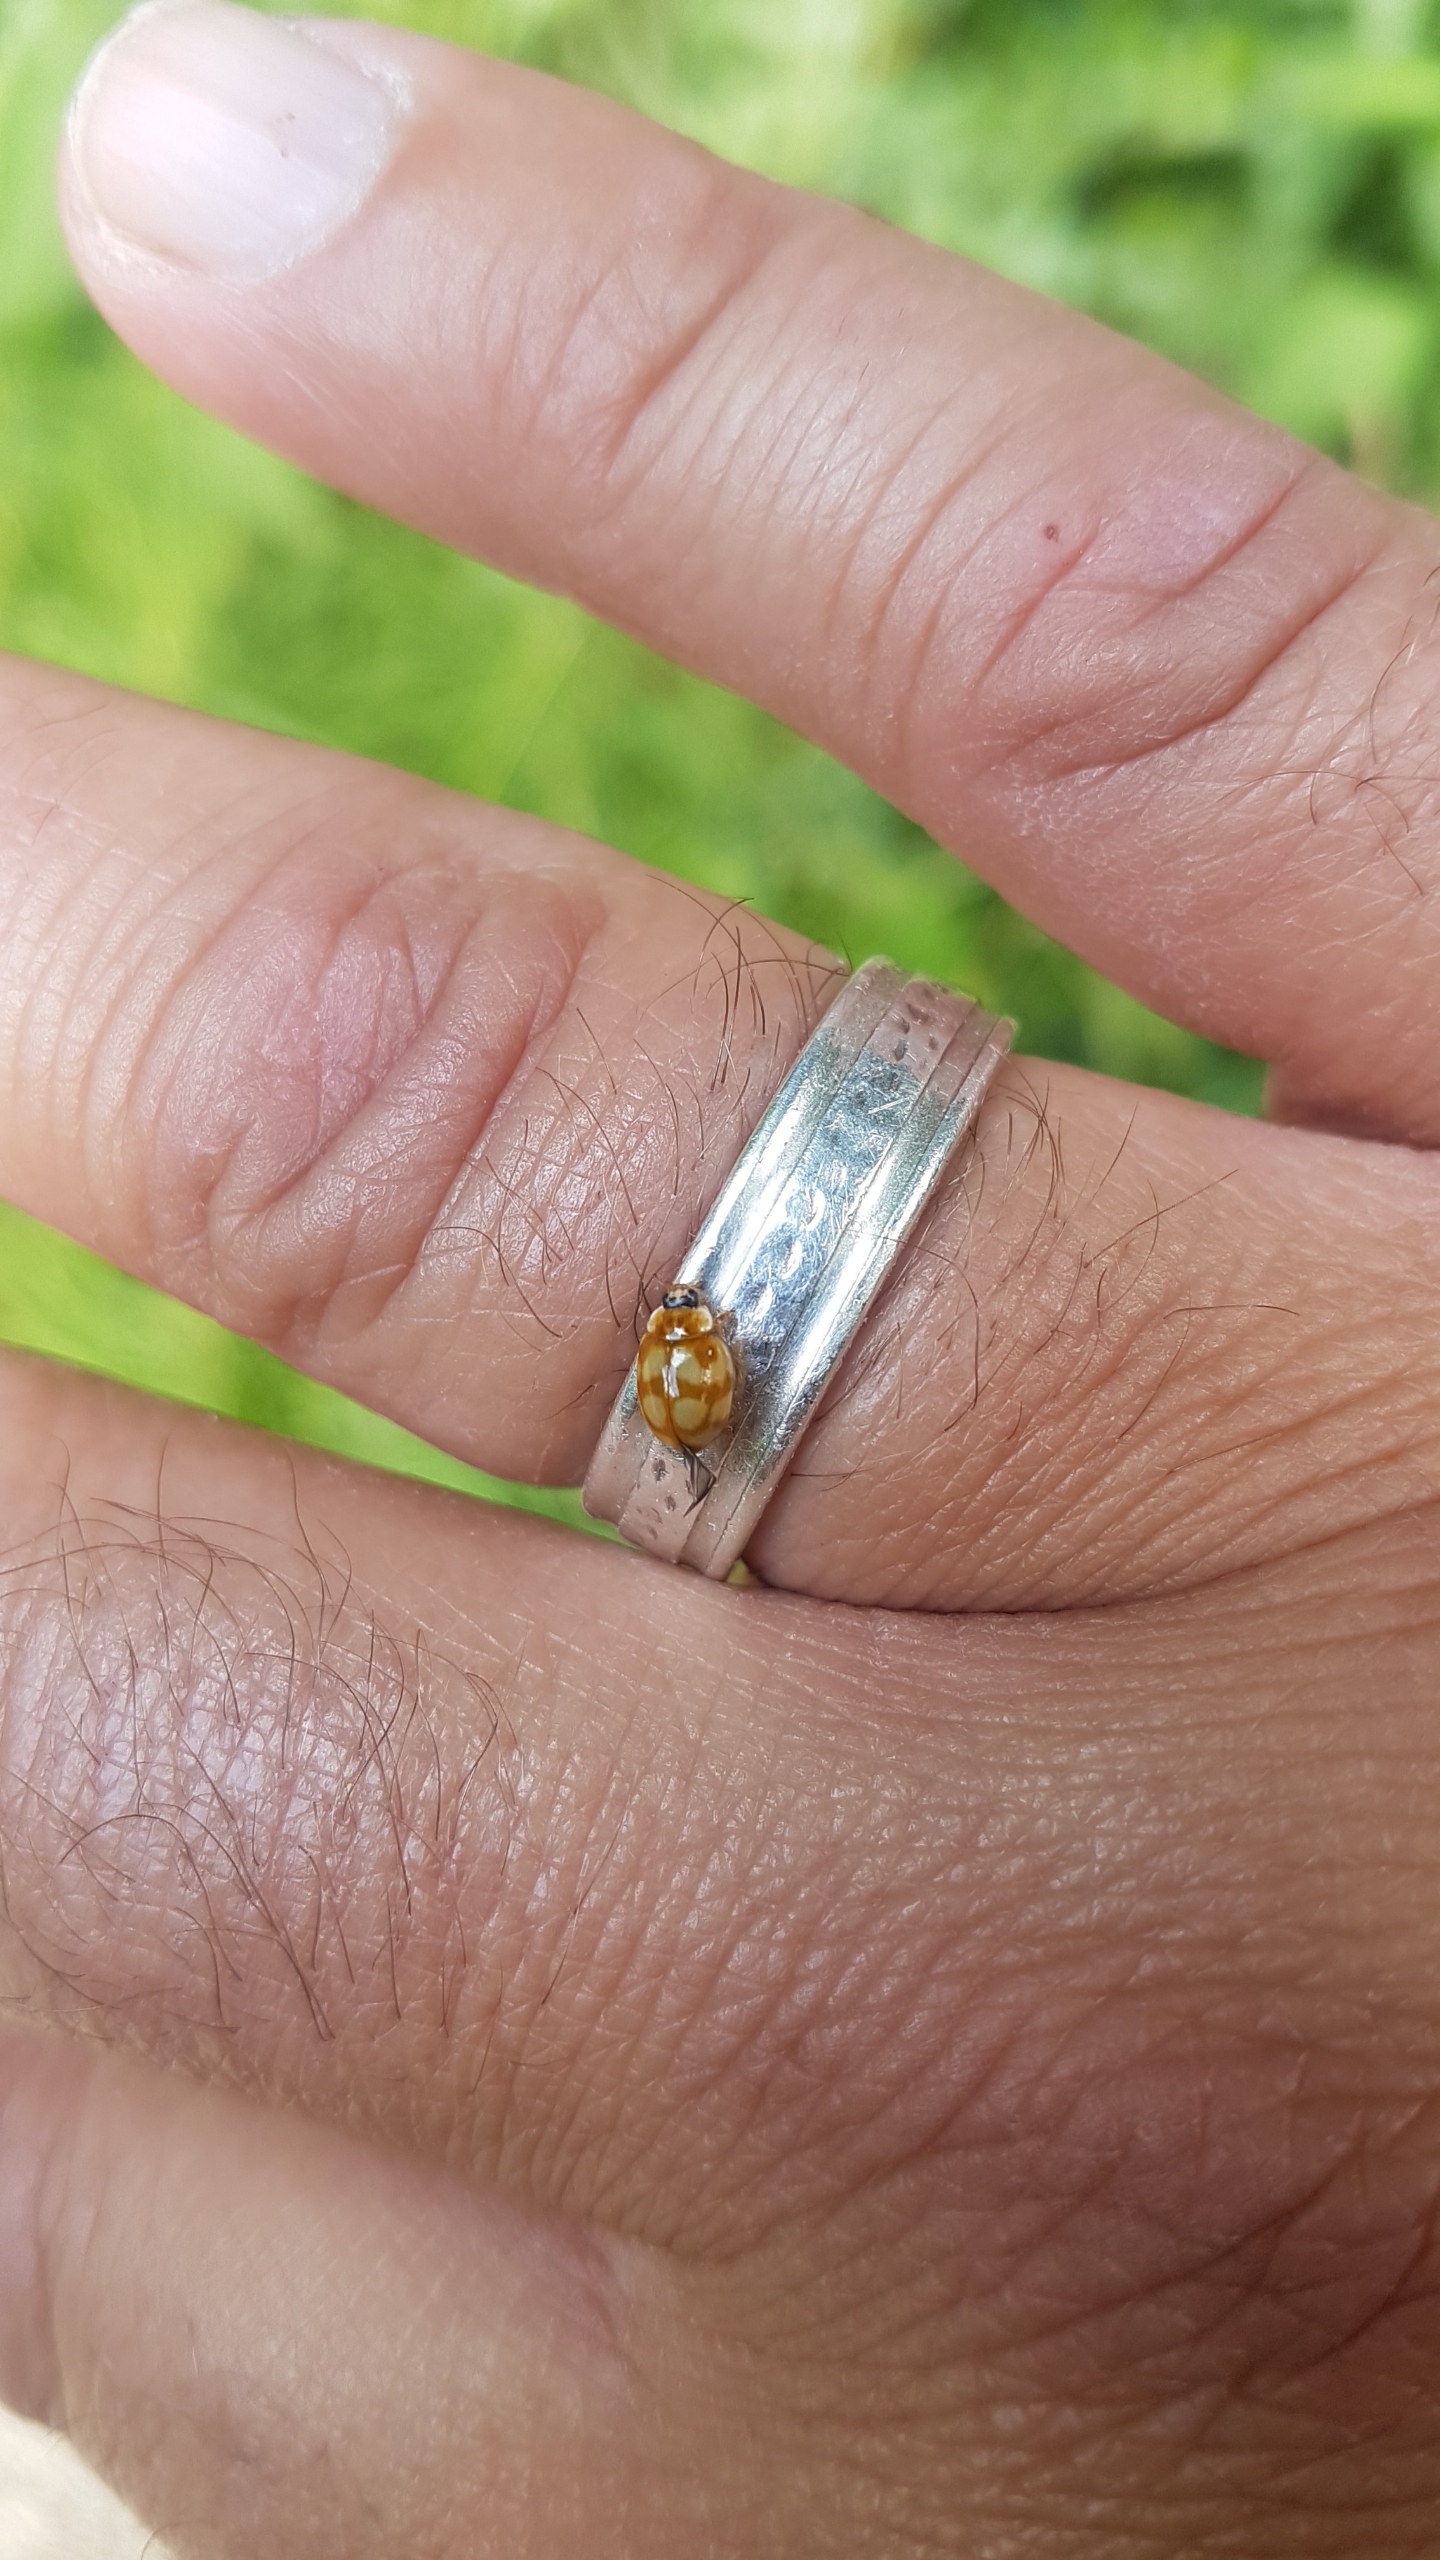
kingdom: Animalia
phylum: Arthropoda
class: Insecta
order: Coleoptera
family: Coccinellidae
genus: Adalia
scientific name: Adalia decempunctata
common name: Tiplettet mariehøne
